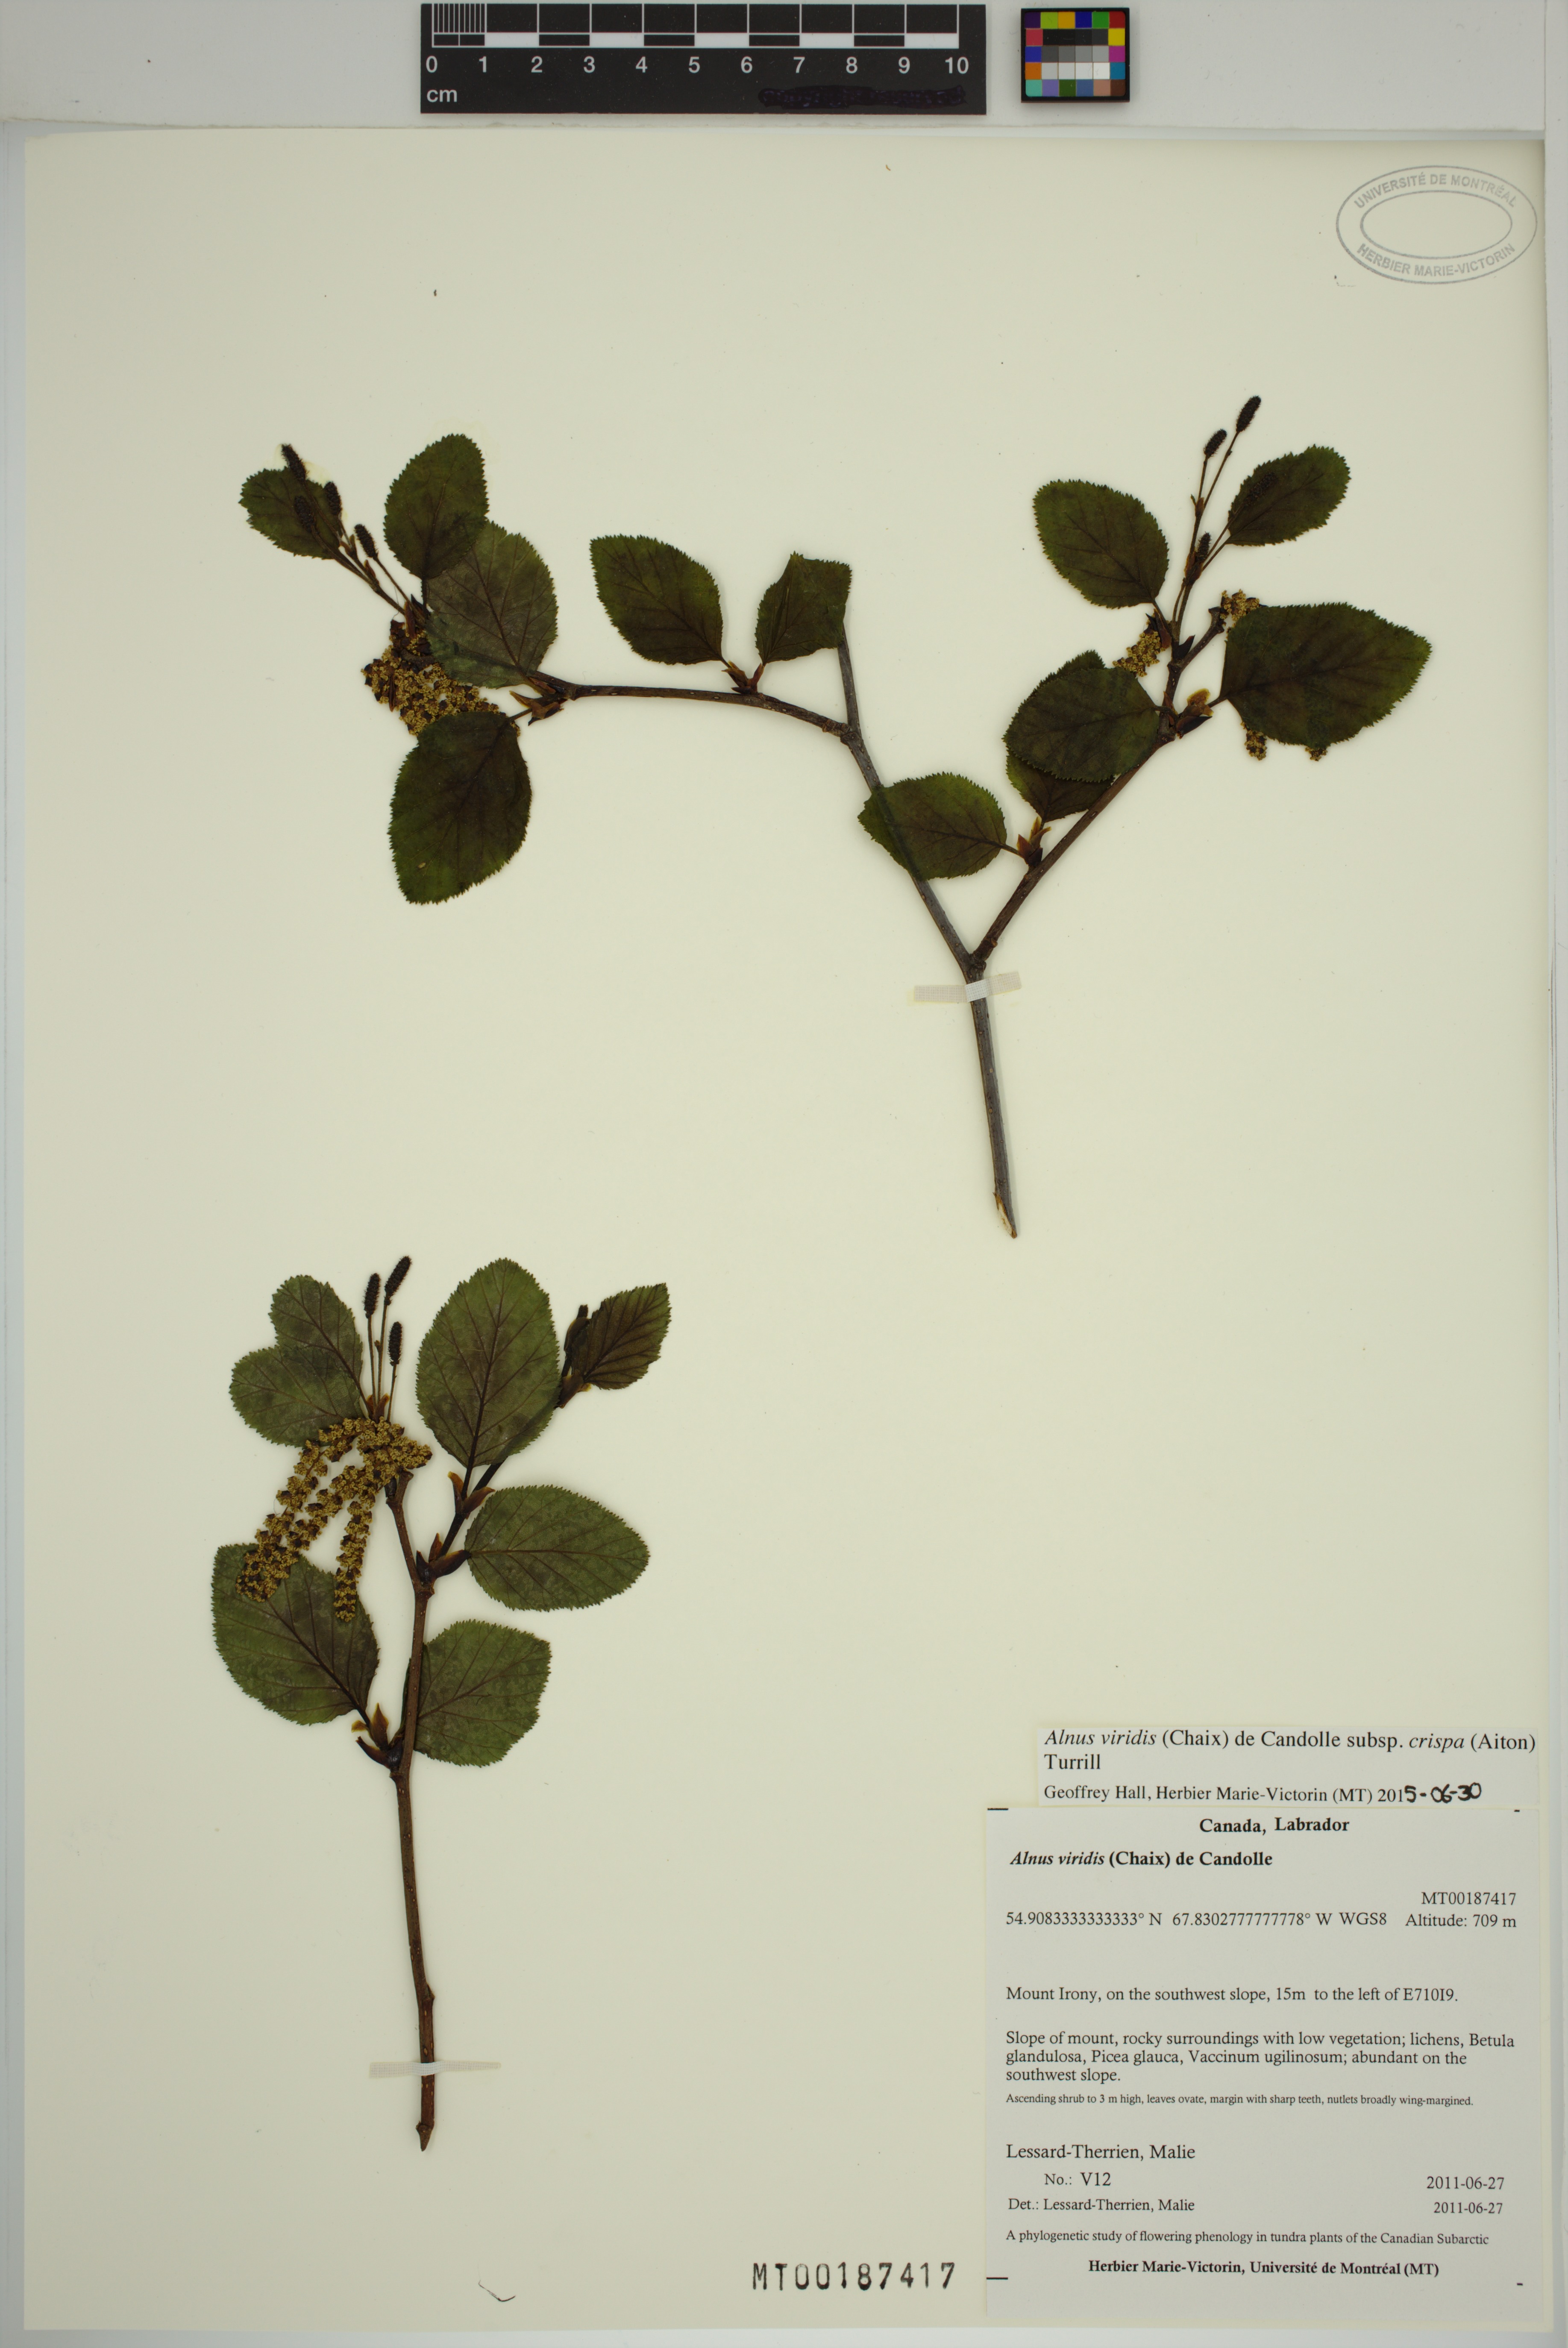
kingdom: Plantae
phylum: Tracheophyta
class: Magnoliopsida
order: Fagales
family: Betulaceae
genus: Alnus
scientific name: Alnus alnobetula
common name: Green alder
